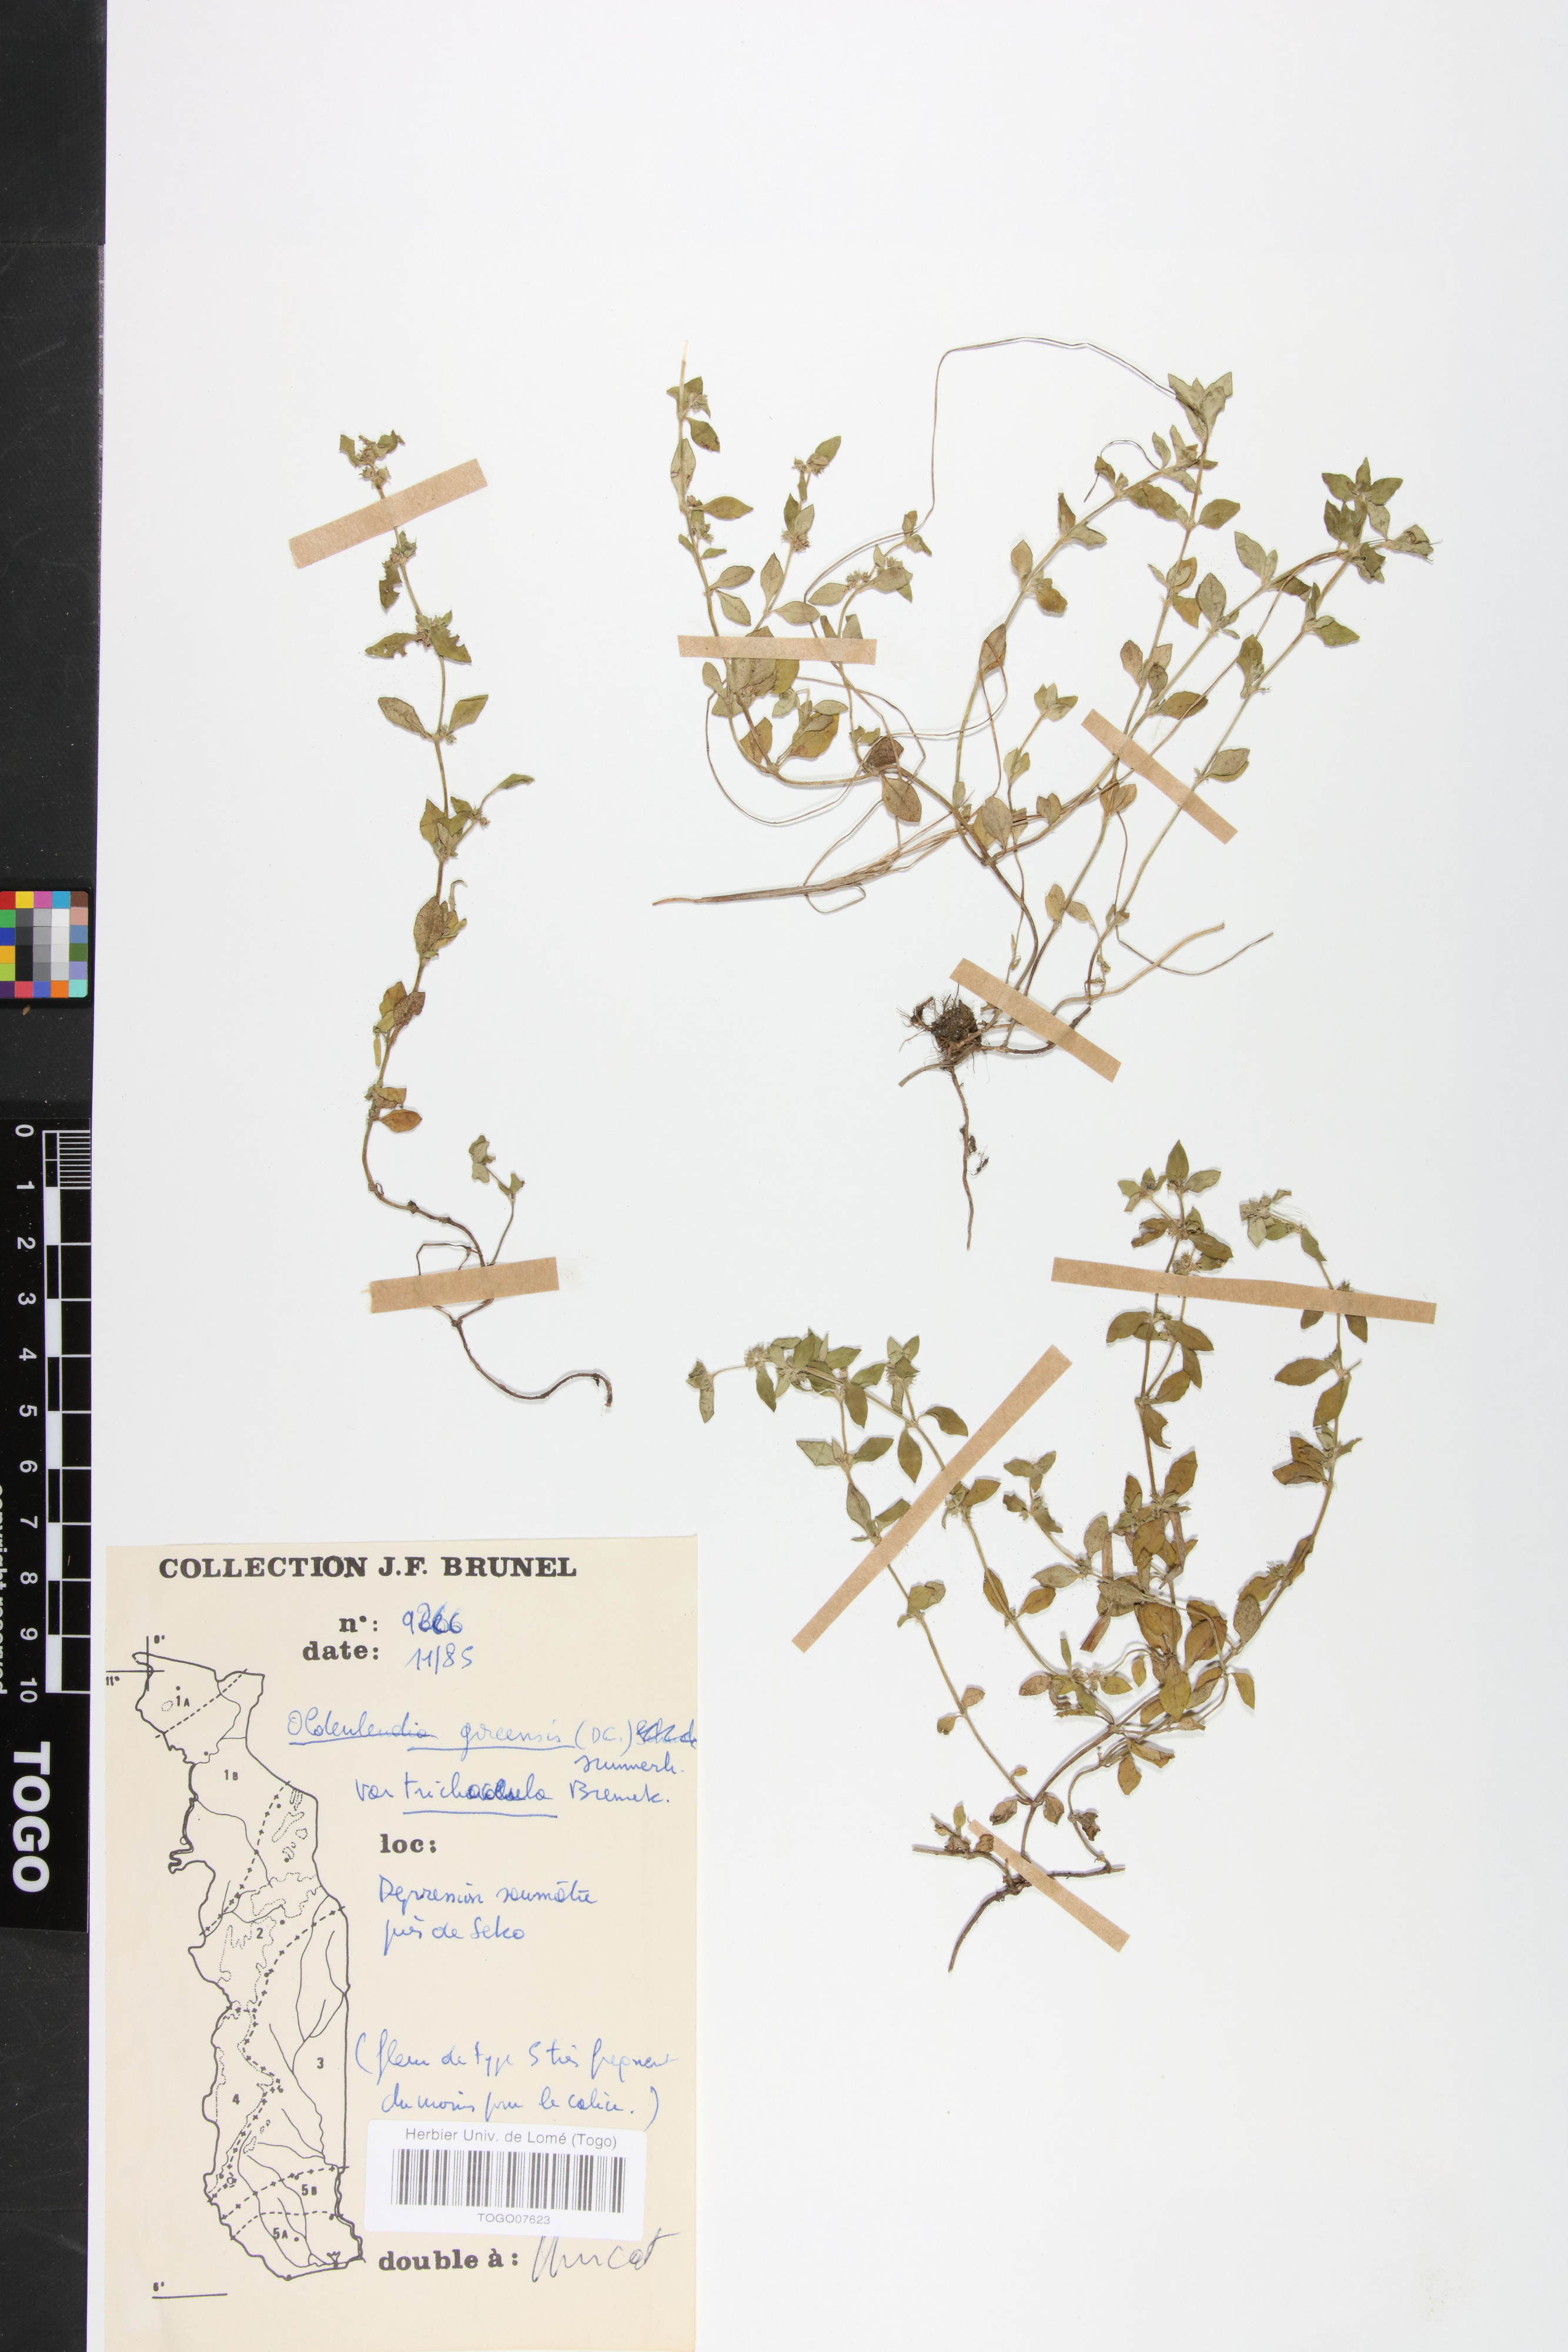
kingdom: Plantae
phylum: Tracheophyta
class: Magnoliopsida
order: Gentianales
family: Rubiaceae
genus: Edrastima
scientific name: Edrastima goreensis
